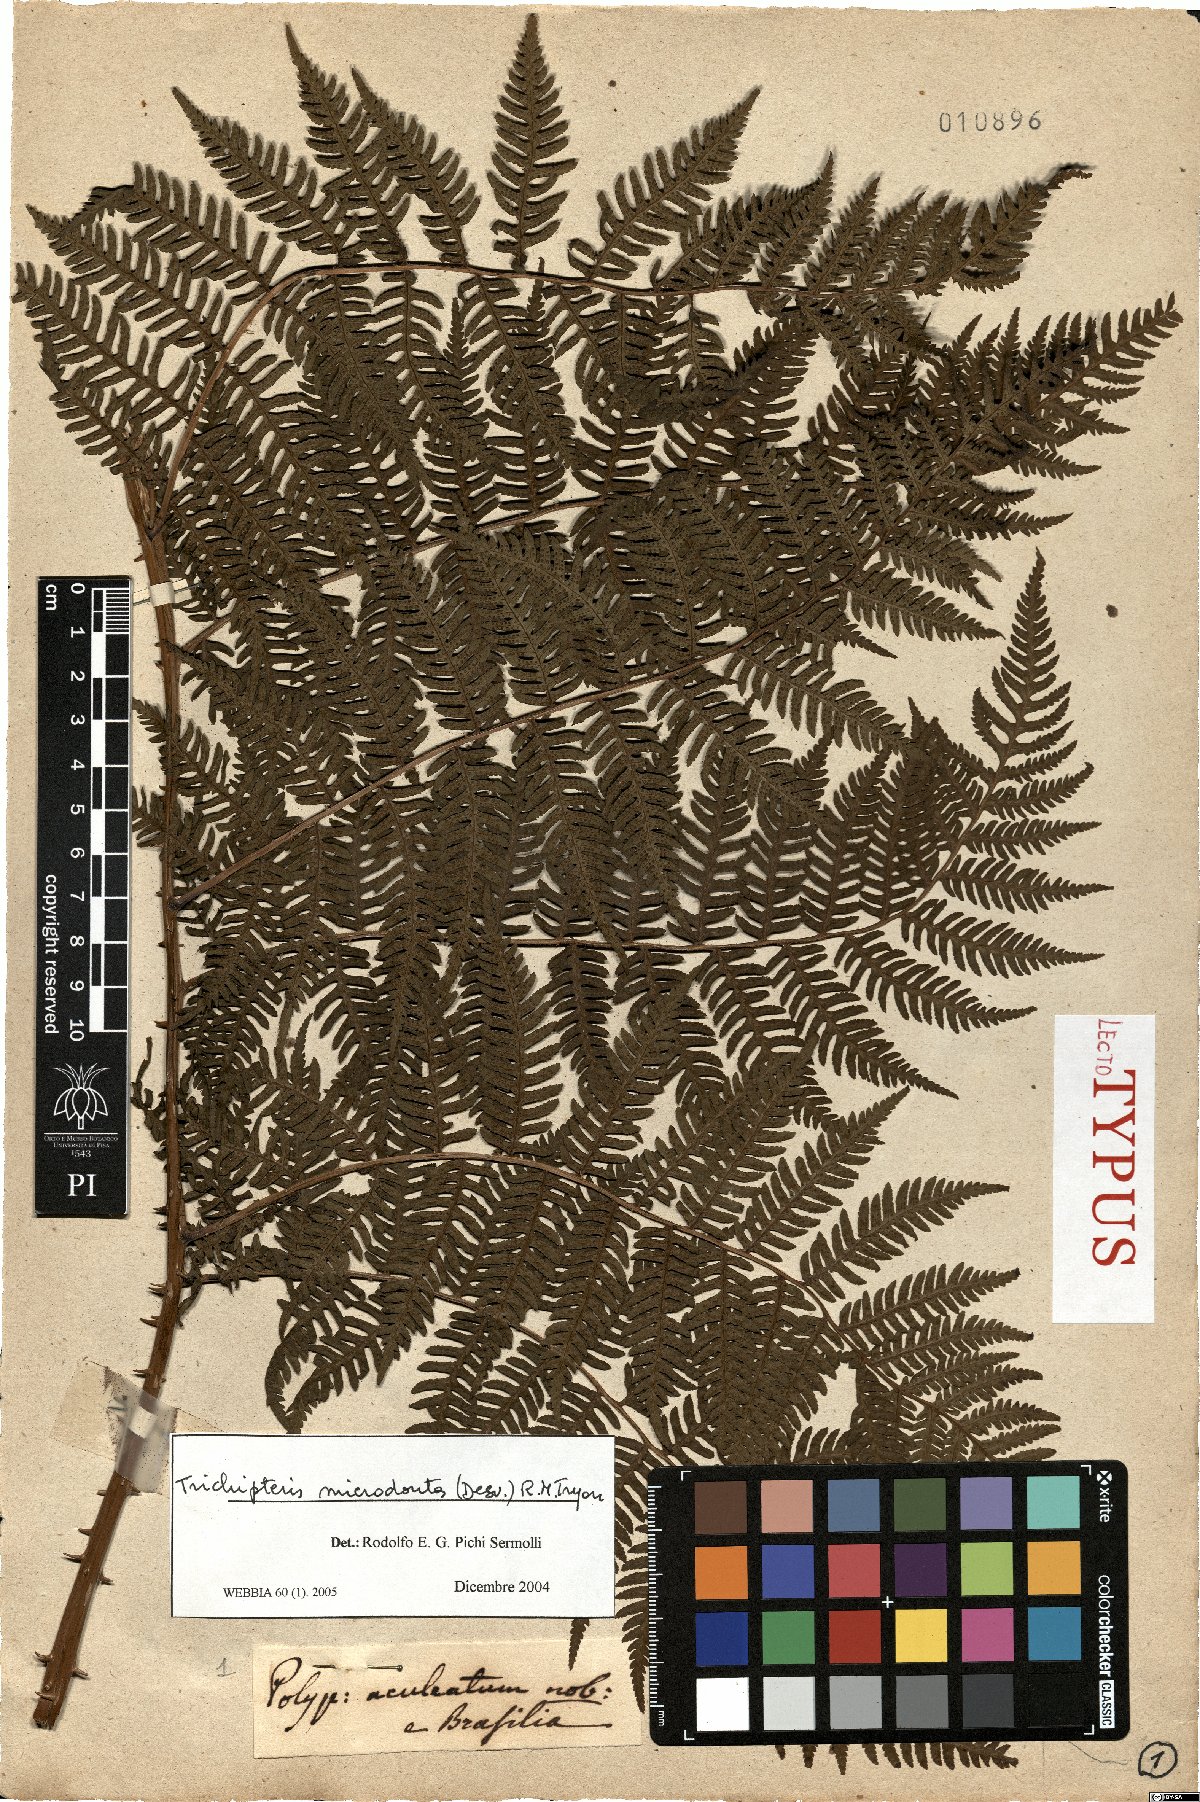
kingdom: Plantae
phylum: Tracheophyta
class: Polypodiopsida
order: Cyatheales
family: Cyatheaceae
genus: Cyathea
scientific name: Cyathea microdonta
